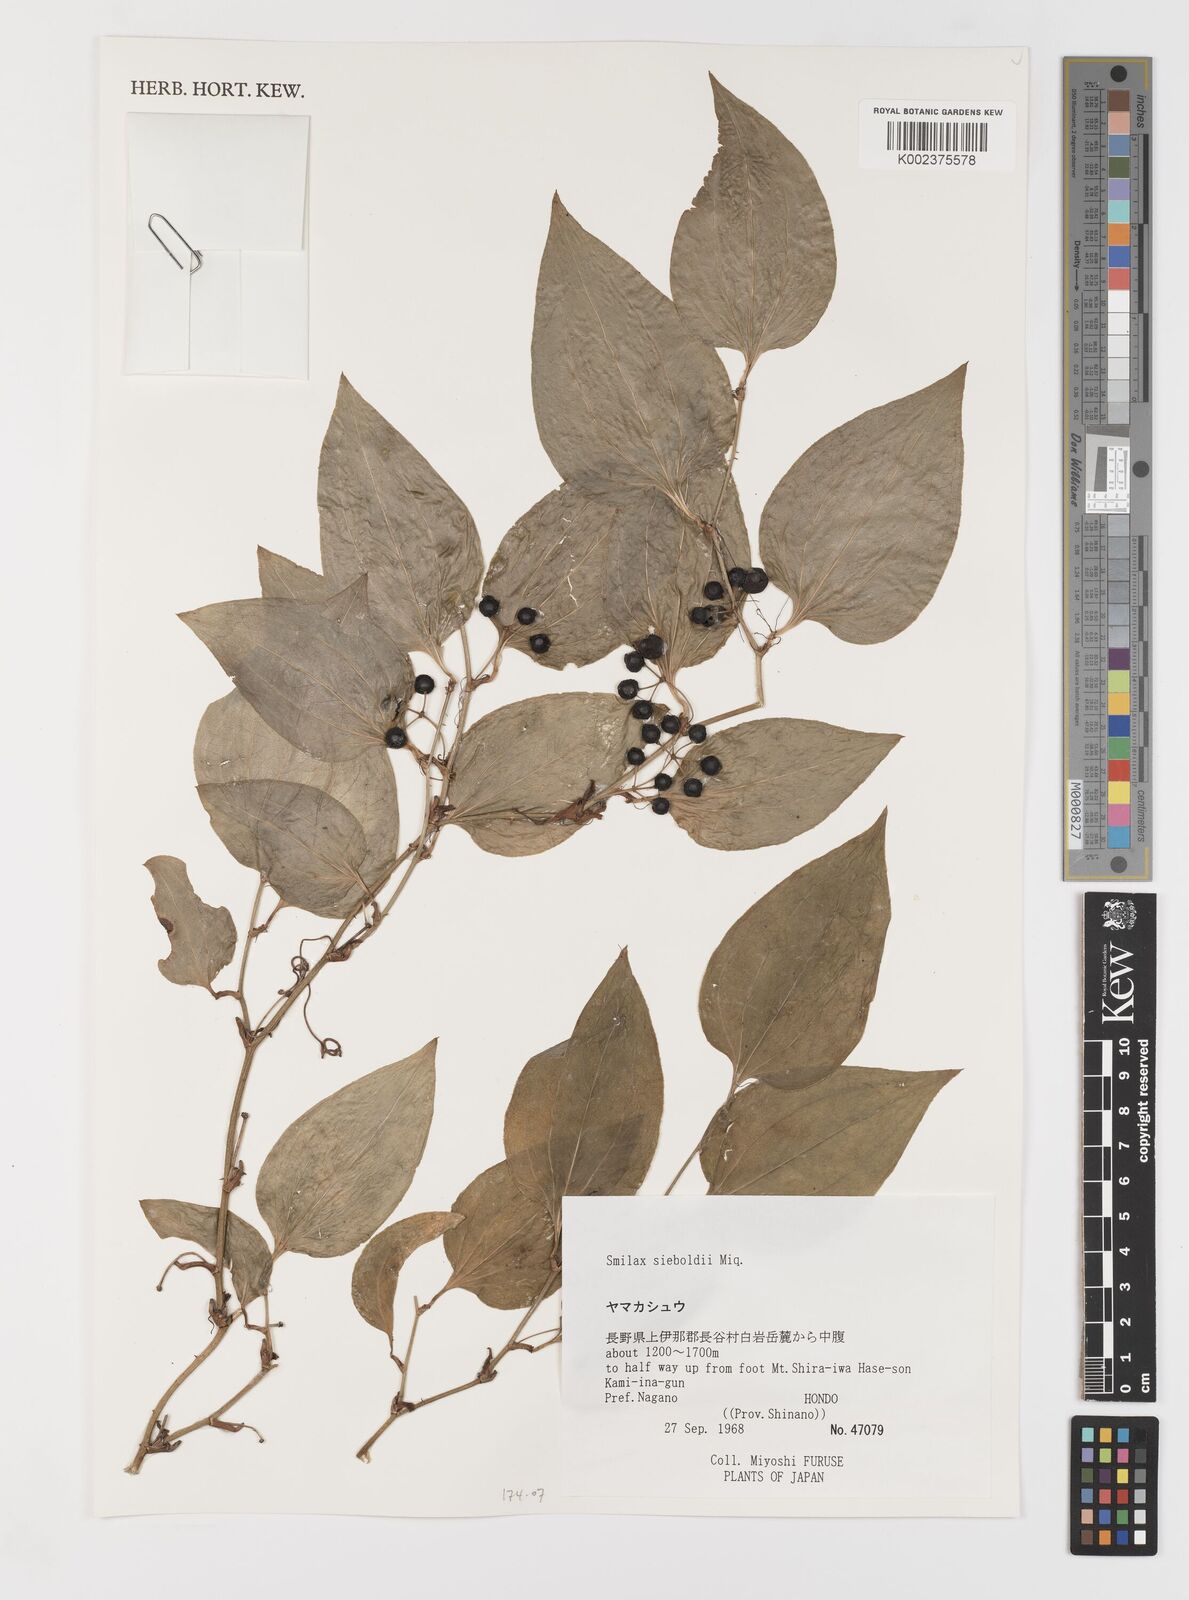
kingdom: Plantae
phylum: Tracheophyta
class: Liliopsida
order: Liliales
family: Smilacaceae
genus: Smilax
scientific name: Smilax sieboldii
